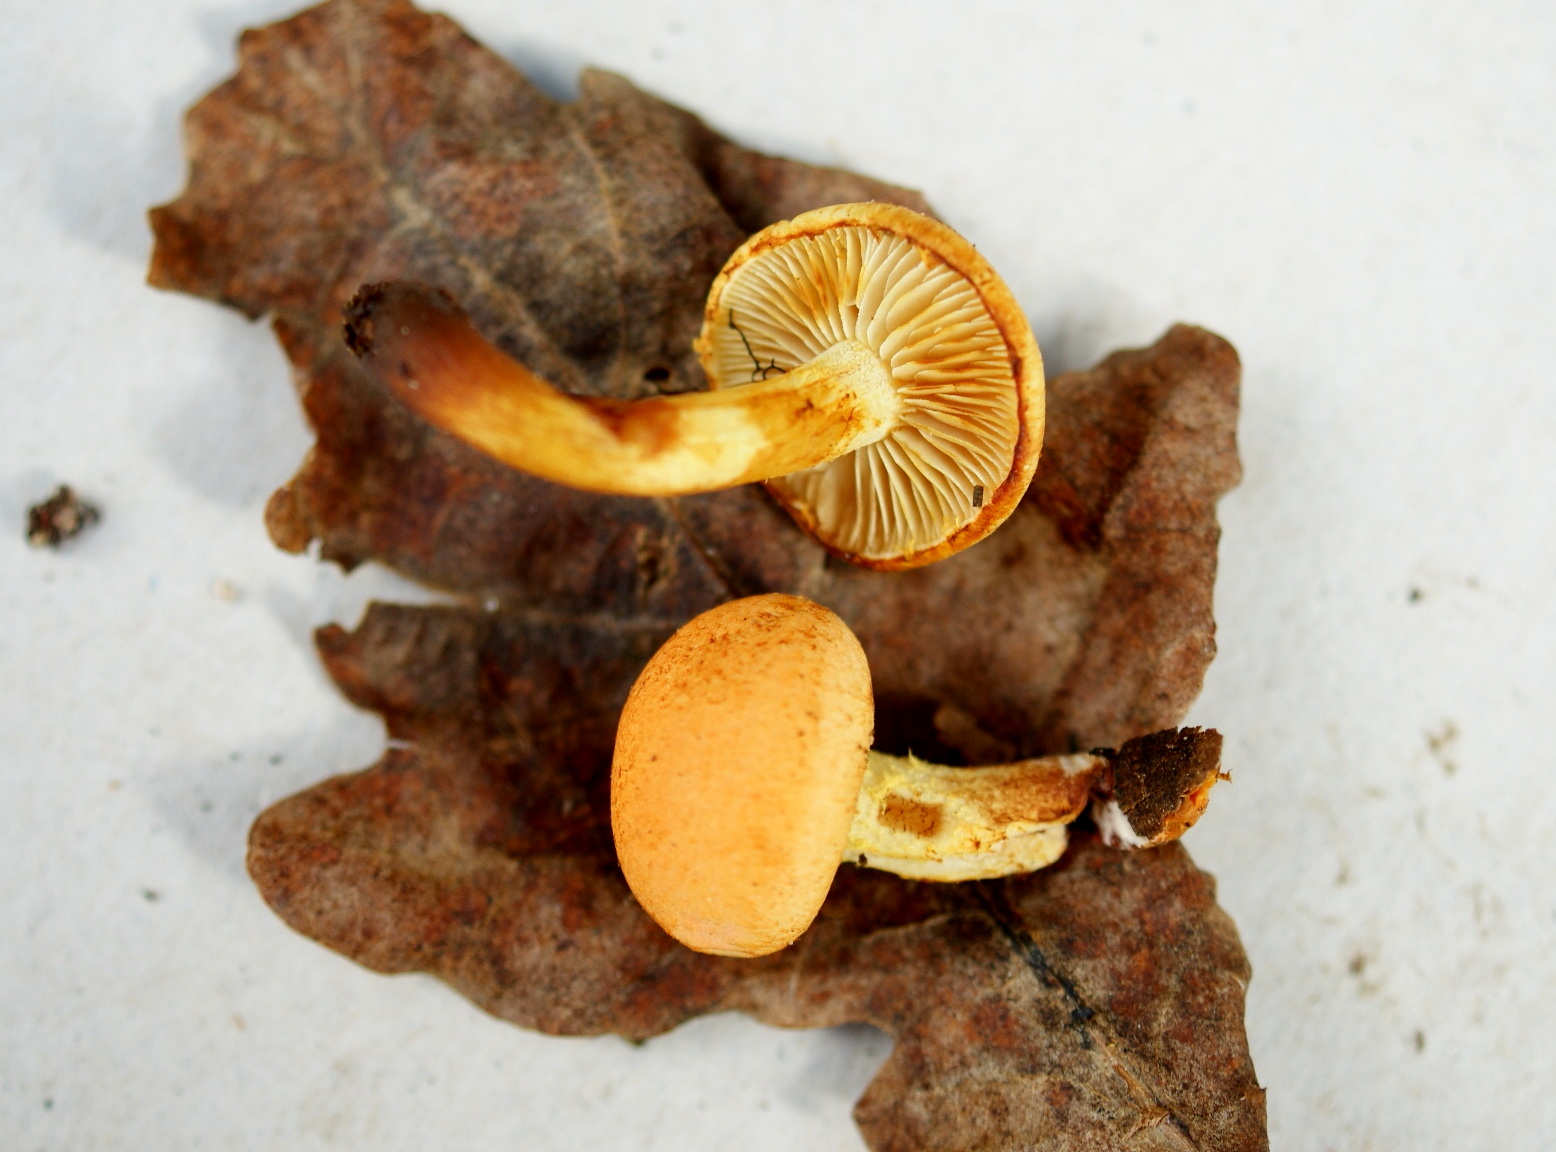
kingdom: Fungi
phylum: Basidiomycota
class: Agaricomycetes
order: Agaricales
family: Strophariaceae
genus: Pholiota
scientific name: Pholiota tuberculosa
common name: finskællet skælhat
